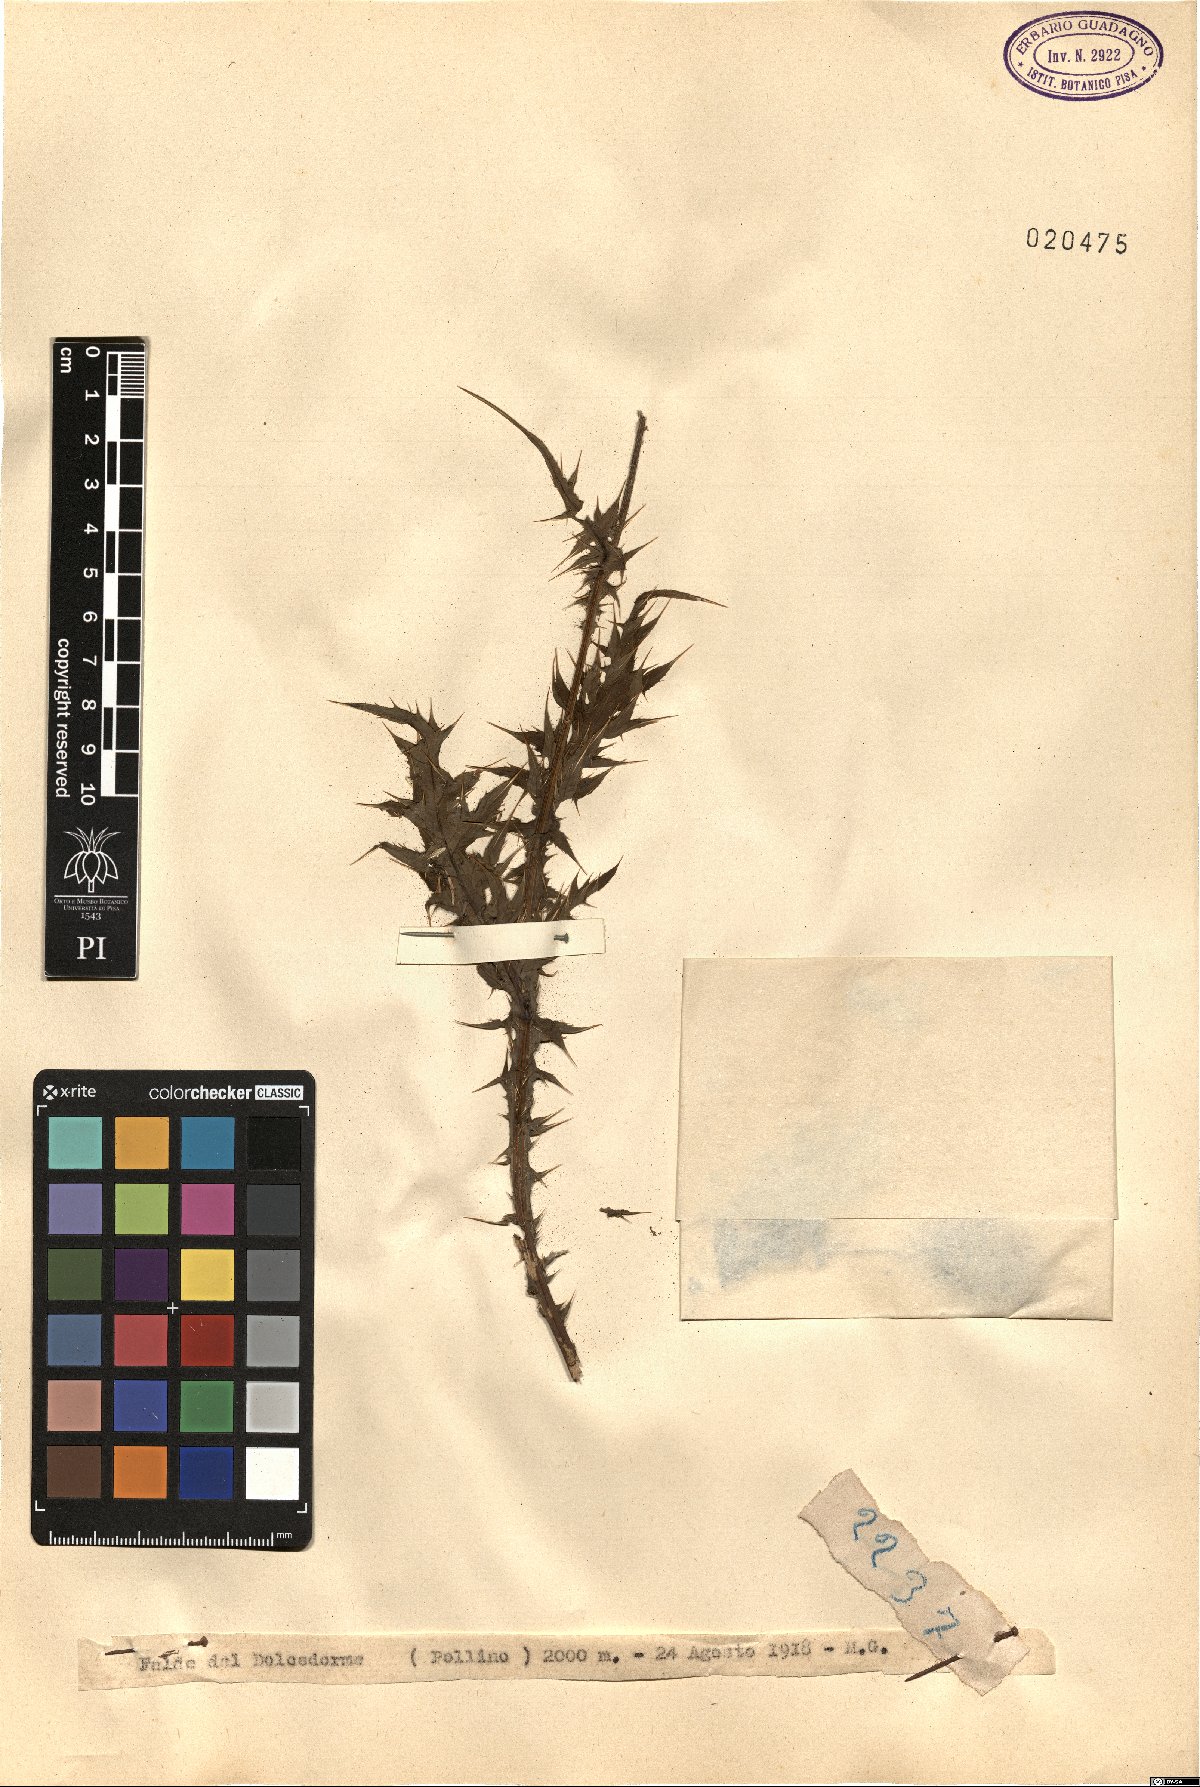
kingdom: Plantae
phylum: Tracheophyta
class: Magnoliopsida
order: Asterales
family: Asteraceae
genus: Carduus
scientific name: Carduus
